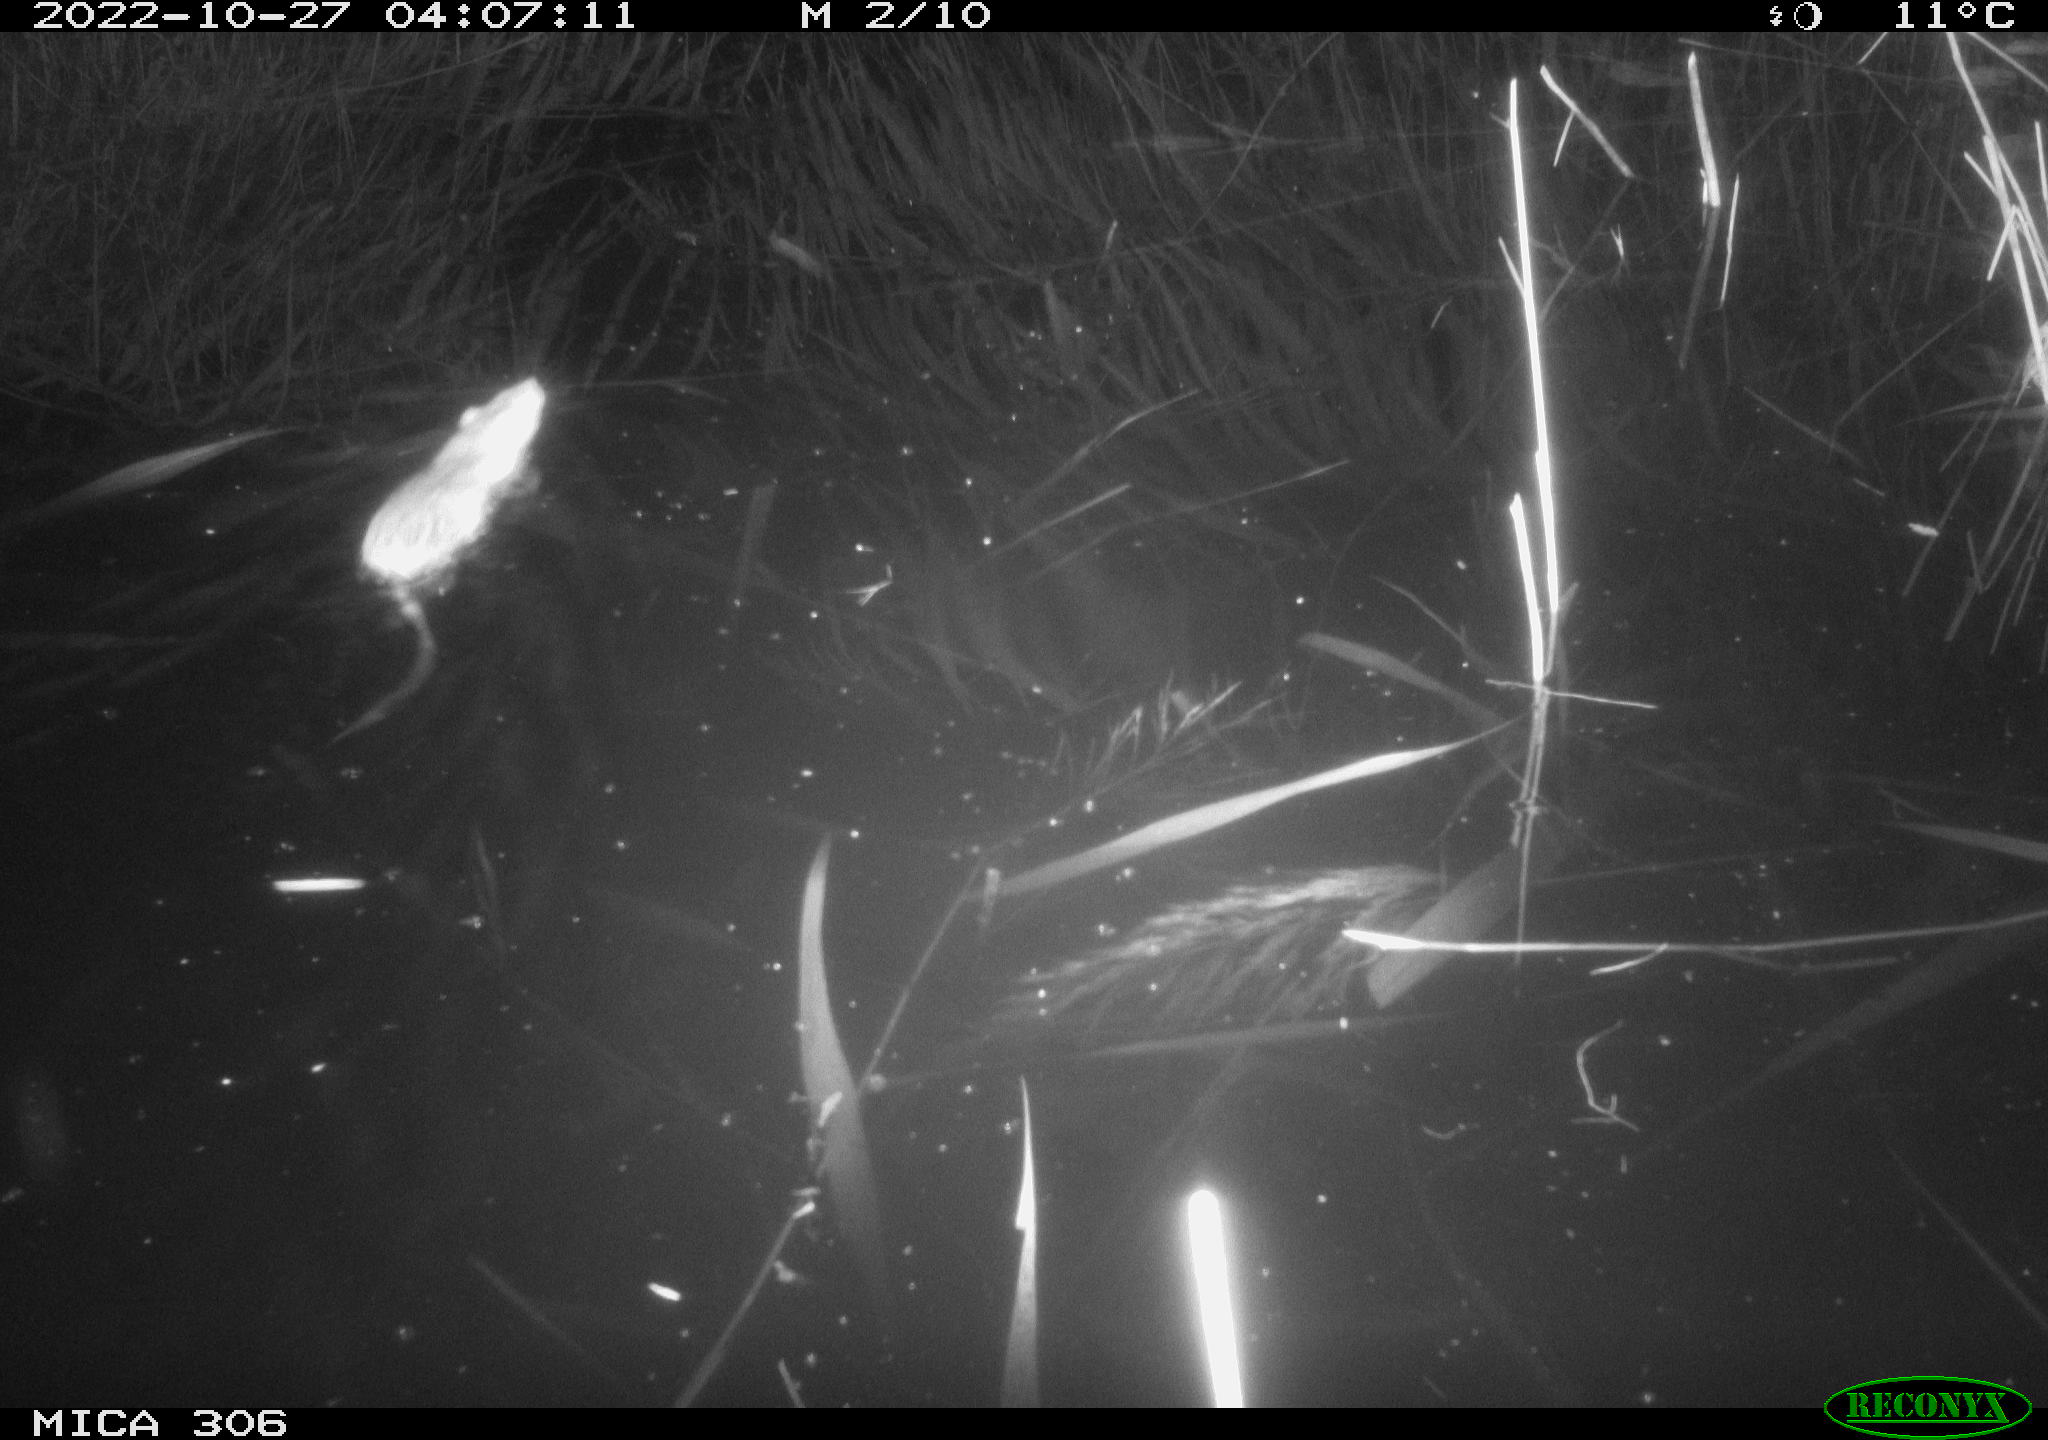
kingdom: Animalia
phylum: Chordata
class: Mammalia
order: Rodentia
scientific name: Rodentia
